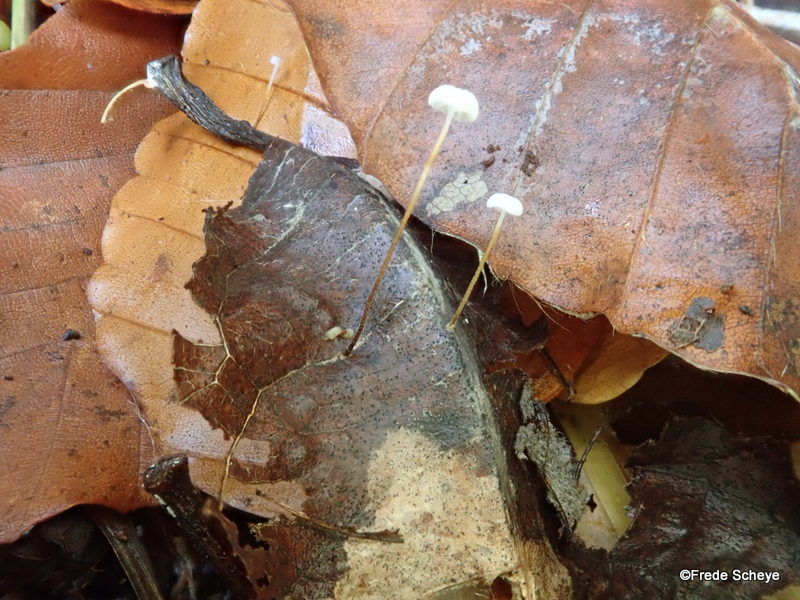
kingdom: Fungi
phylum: Basidiomycota
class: Agaricomycetes
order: Agaricales
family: Physalacriaceae
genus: Rhizomarasmius
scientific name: Rhizomarasmius setosus
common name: bøgeblads-bruskhat
